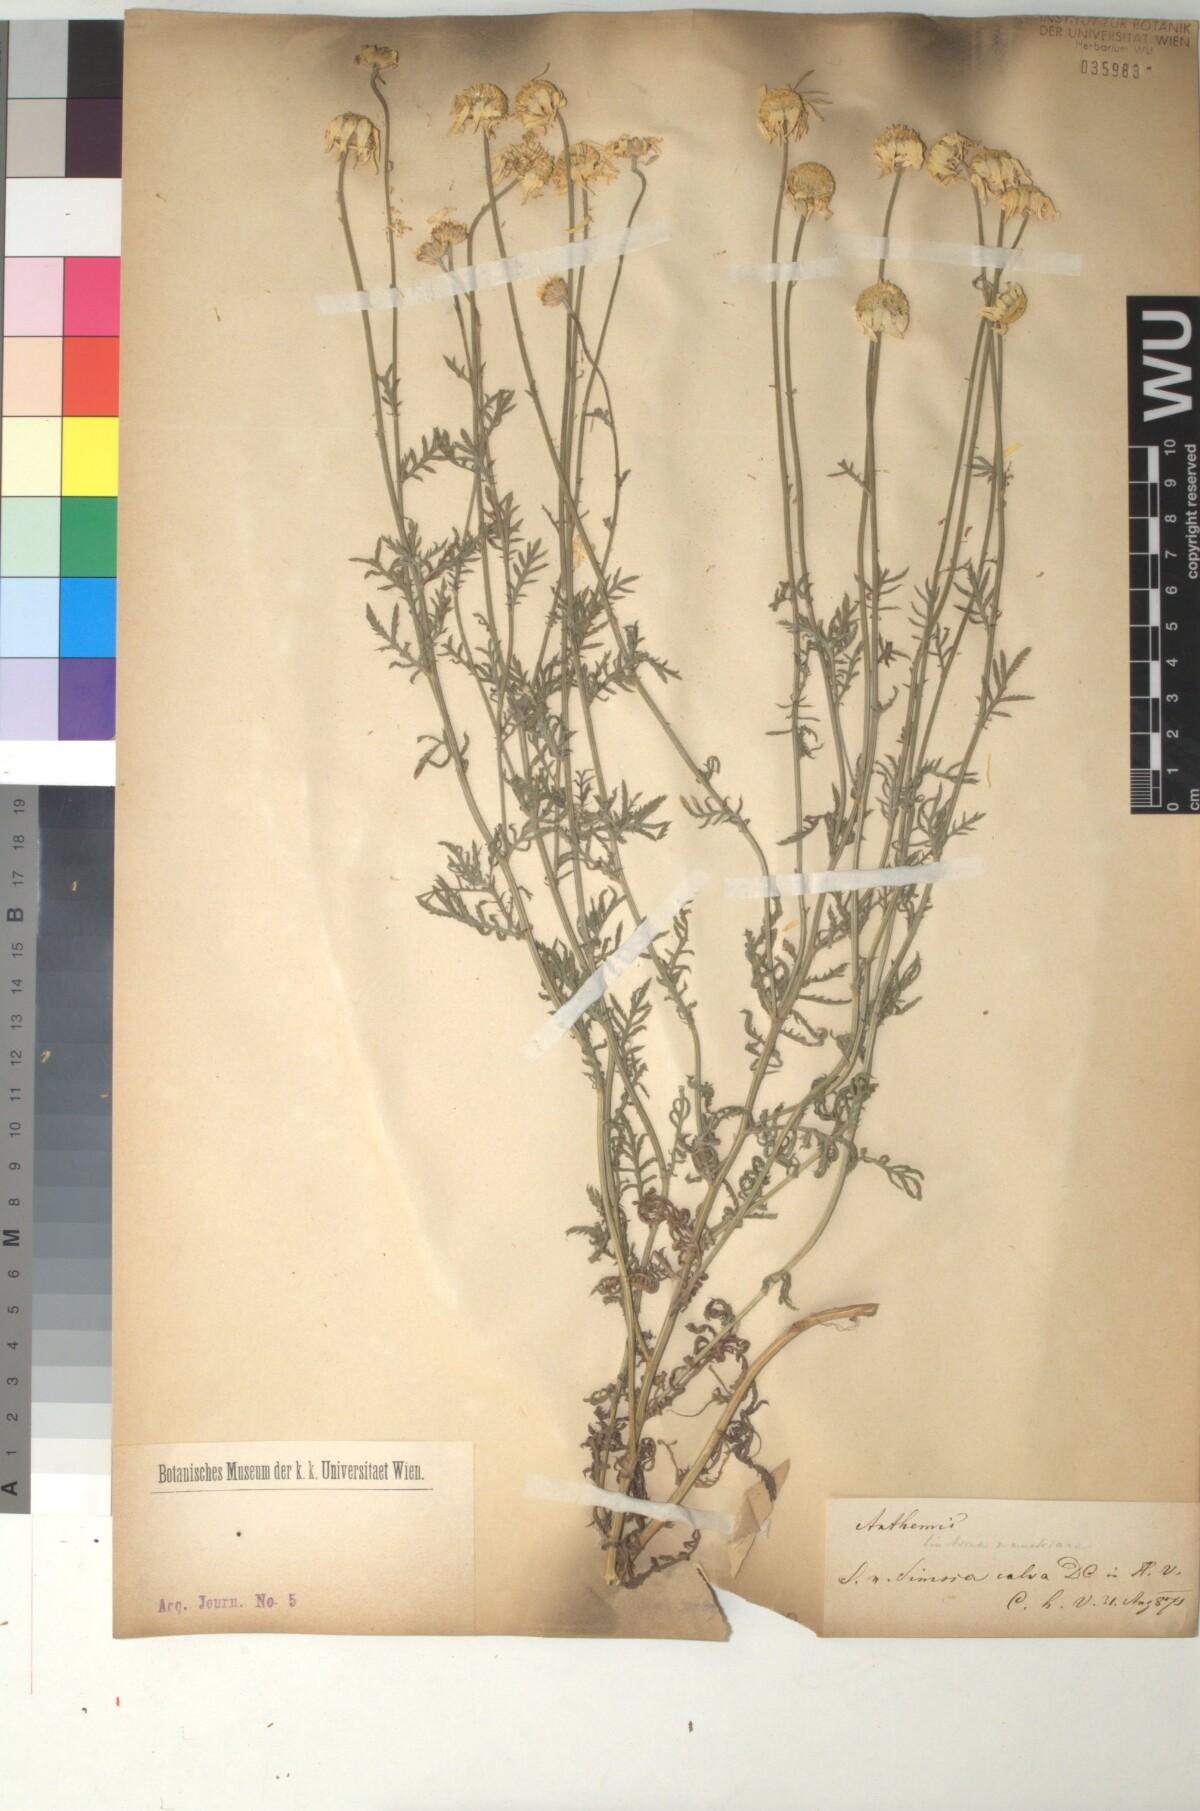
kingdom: Plantae
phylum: Tracheophyta
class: Magnoliopsida
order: Asterales
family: Asteraceae
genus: Cota
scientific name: Cota austriaca
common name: Austrian chamomile
